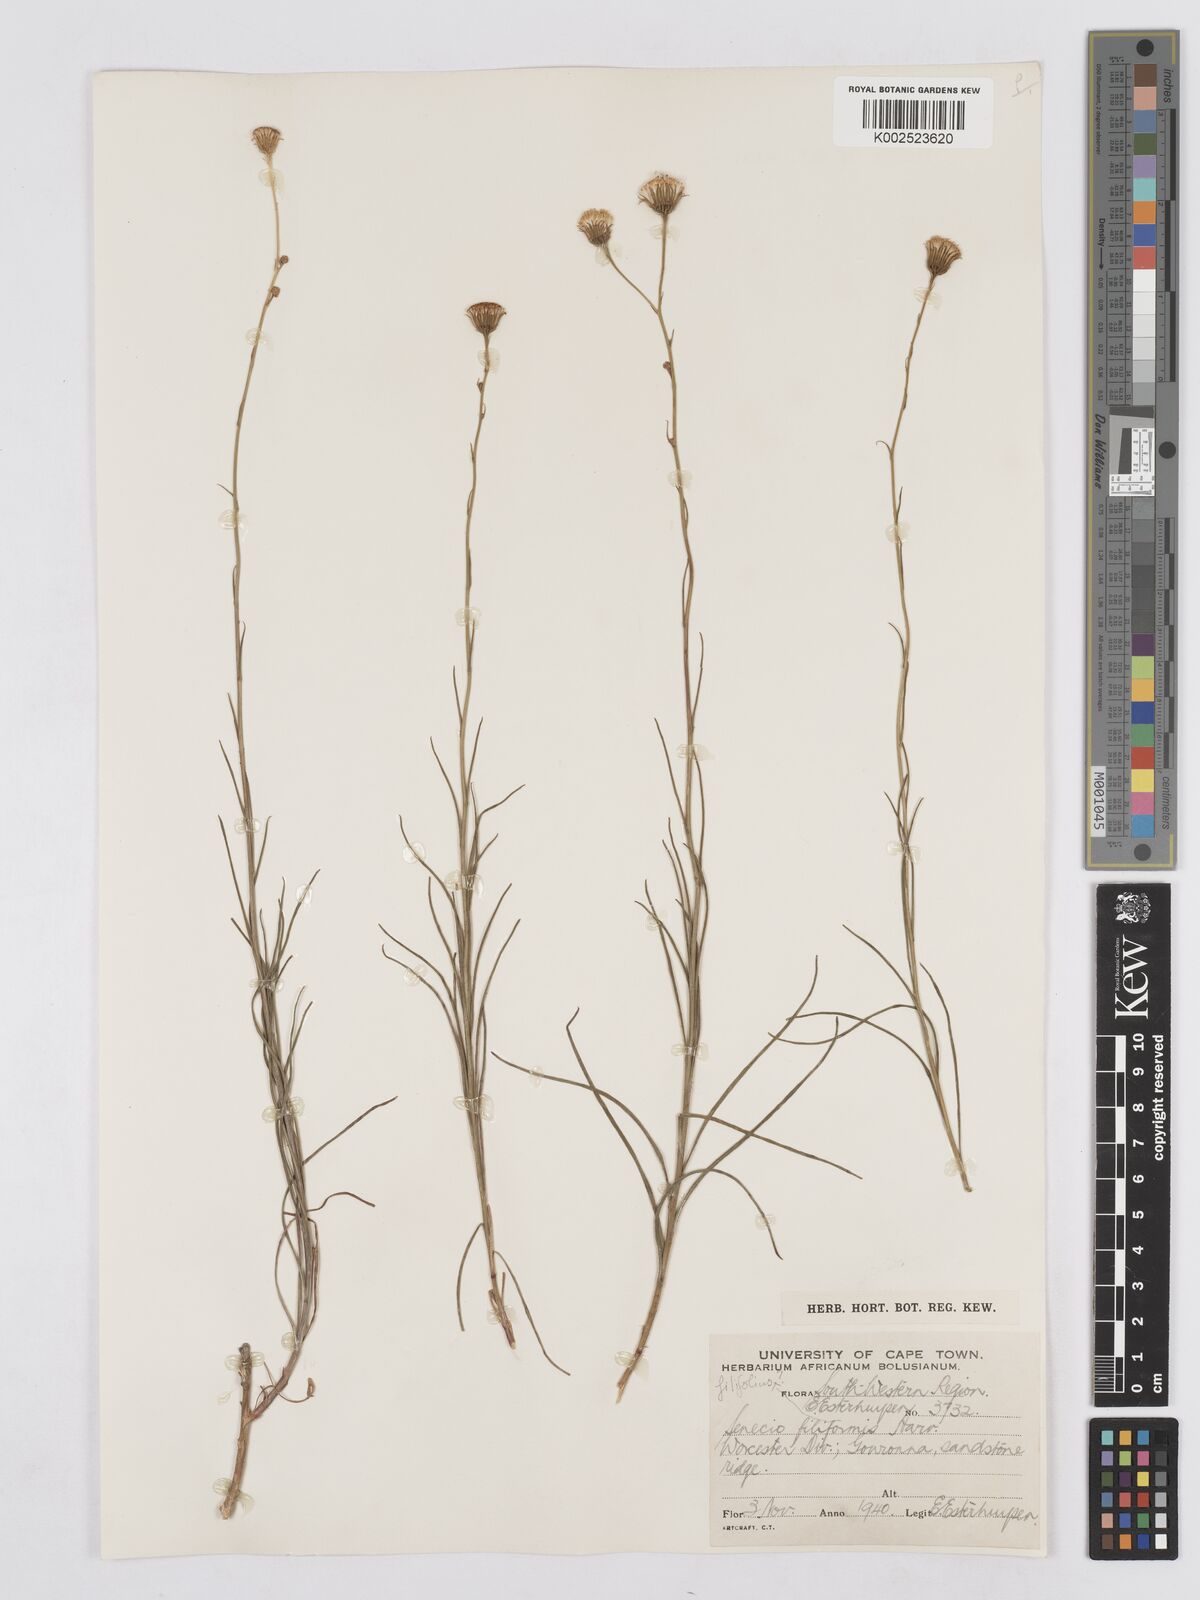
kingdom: Plantae
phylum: Tracheophyta
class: Magnoliopsida
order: Asterales
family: Asteraceae
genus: Senecio
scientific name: Senecio
